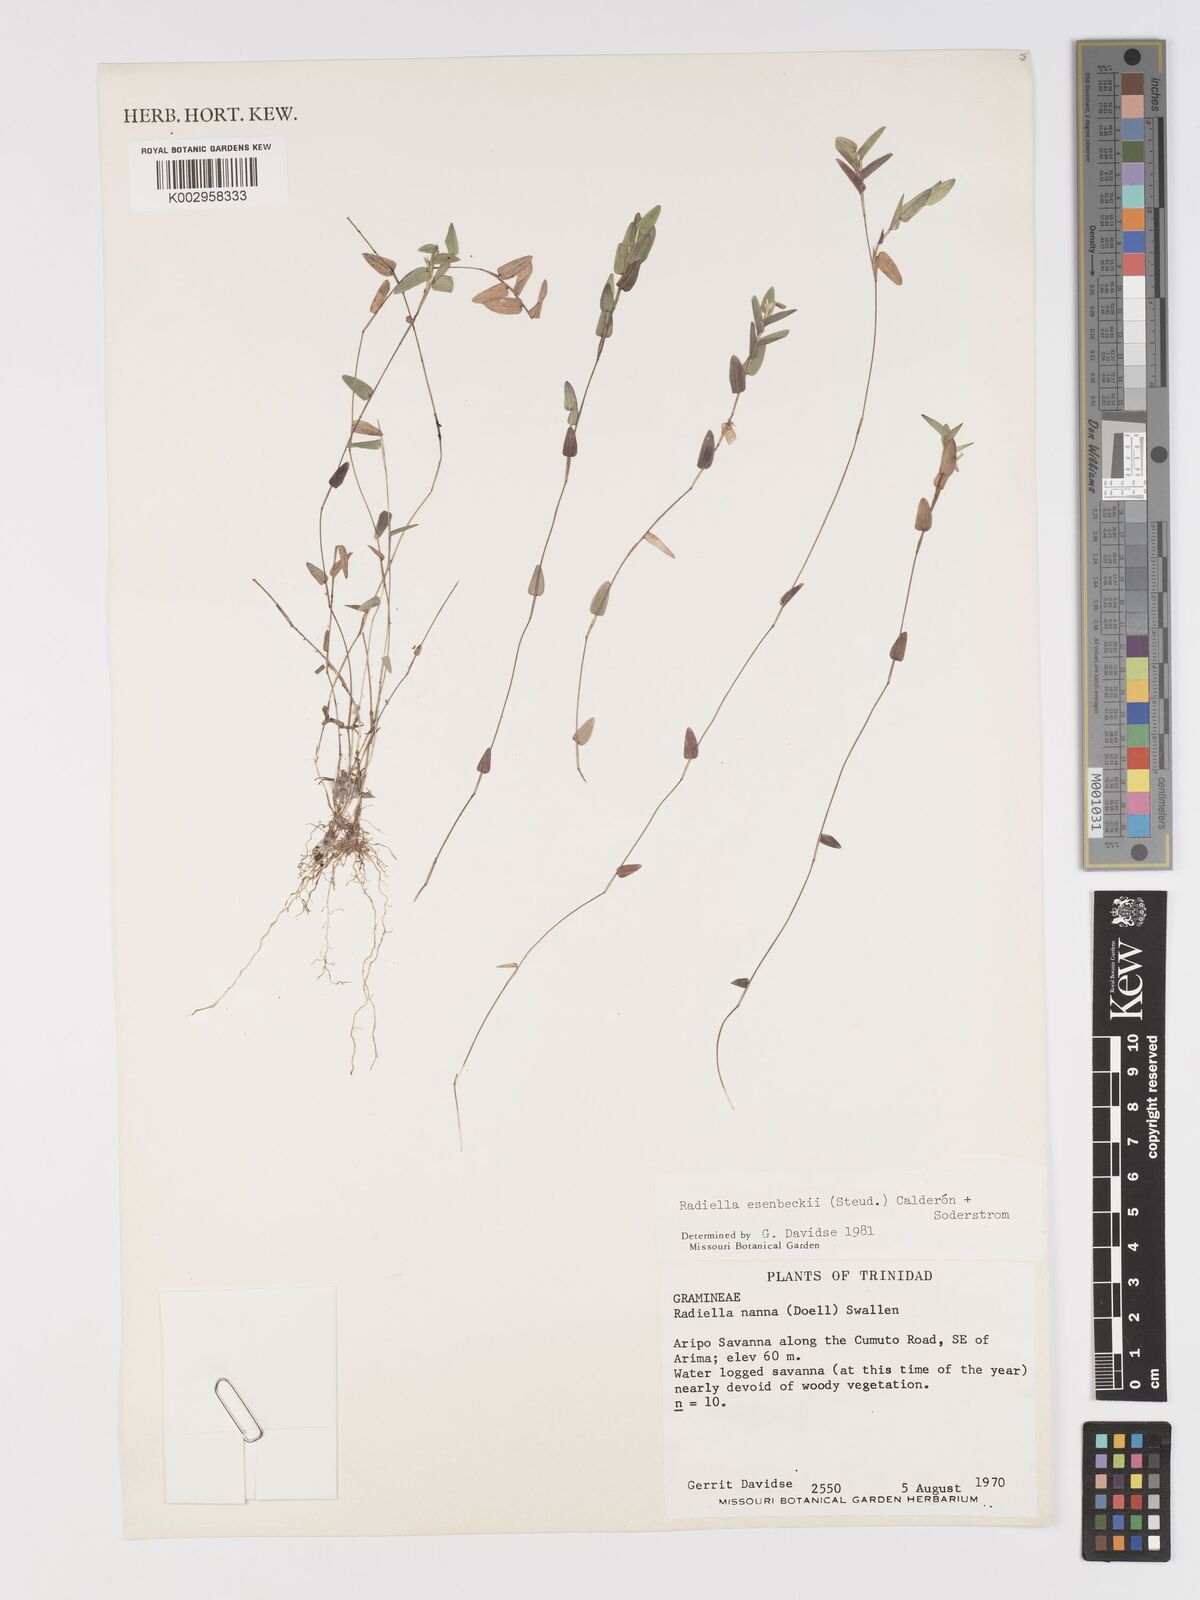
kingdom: Plantae
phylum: Tracheophyta
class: Liliopsida
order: Poales
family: Poaceae
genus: Raddiella
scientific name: Raddiella esenbeckii
